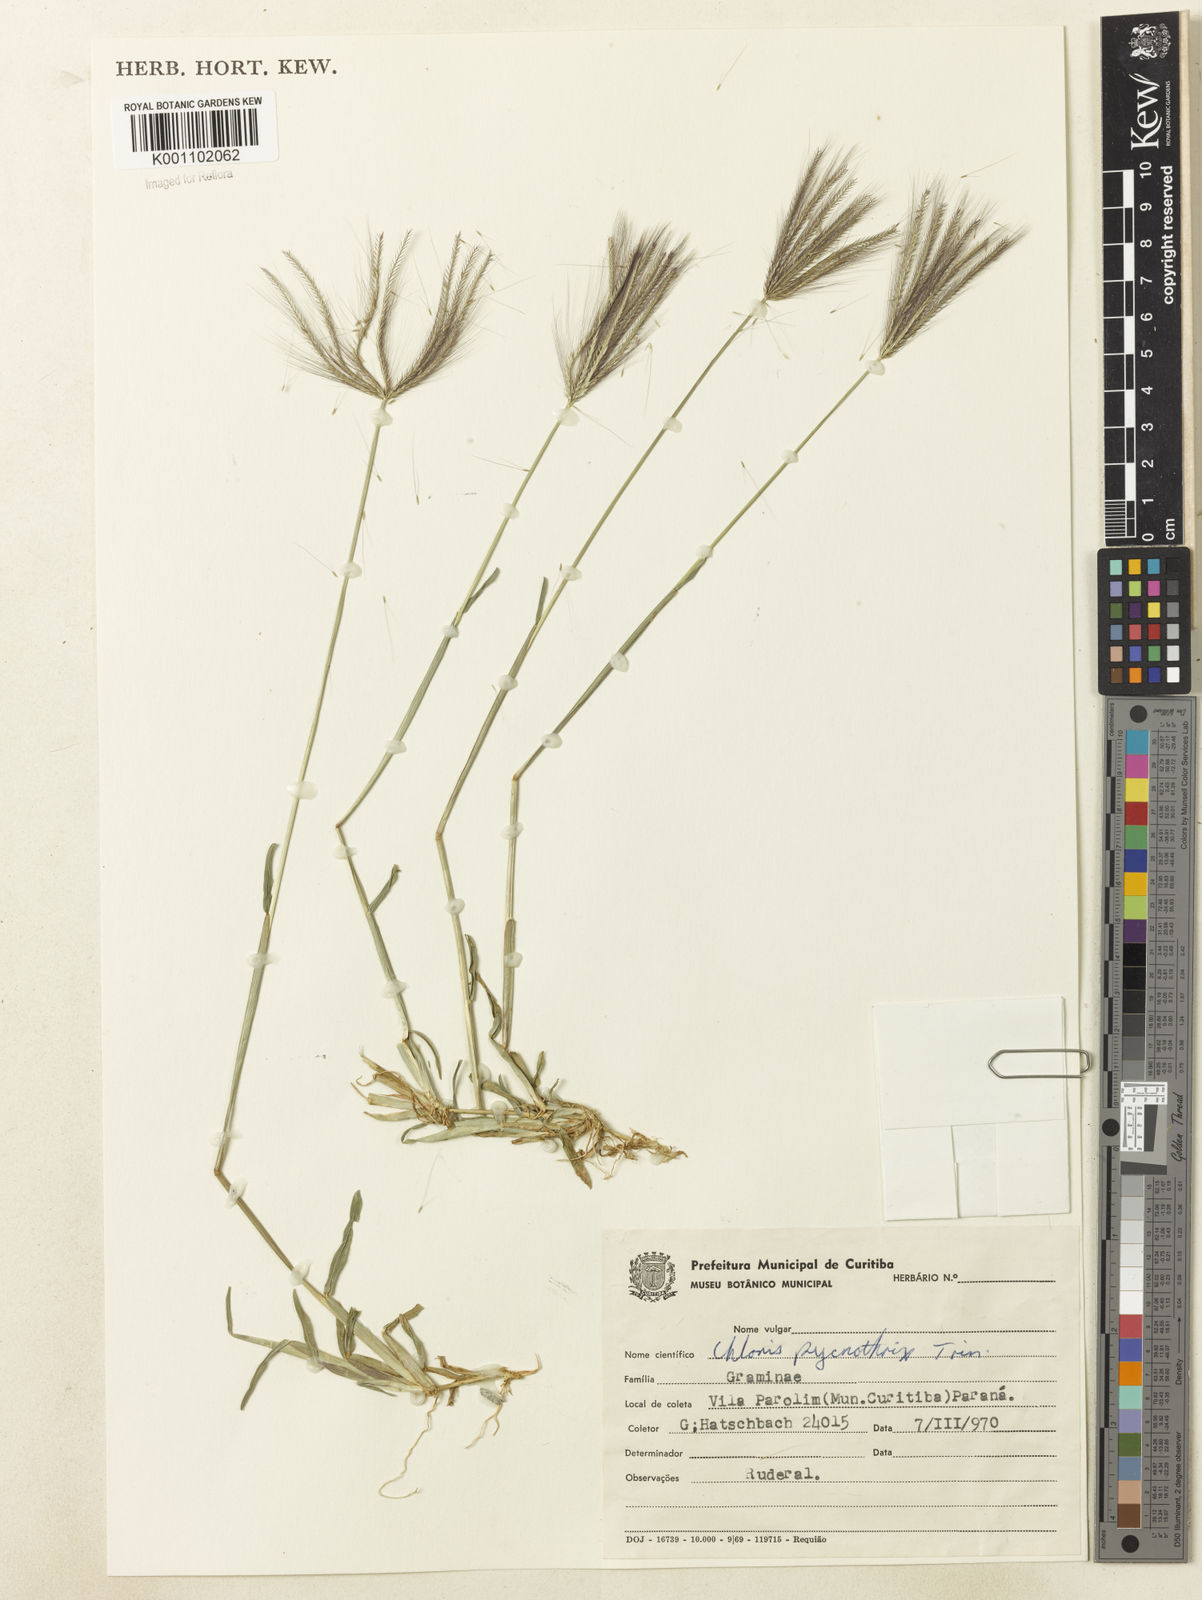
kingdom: Plantae
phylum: Tracheophyta
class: Liliopsida
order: Poales
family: Poaceae
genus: Chloris
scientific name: Chloris pycnothrix
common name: Spiderweb chloris
